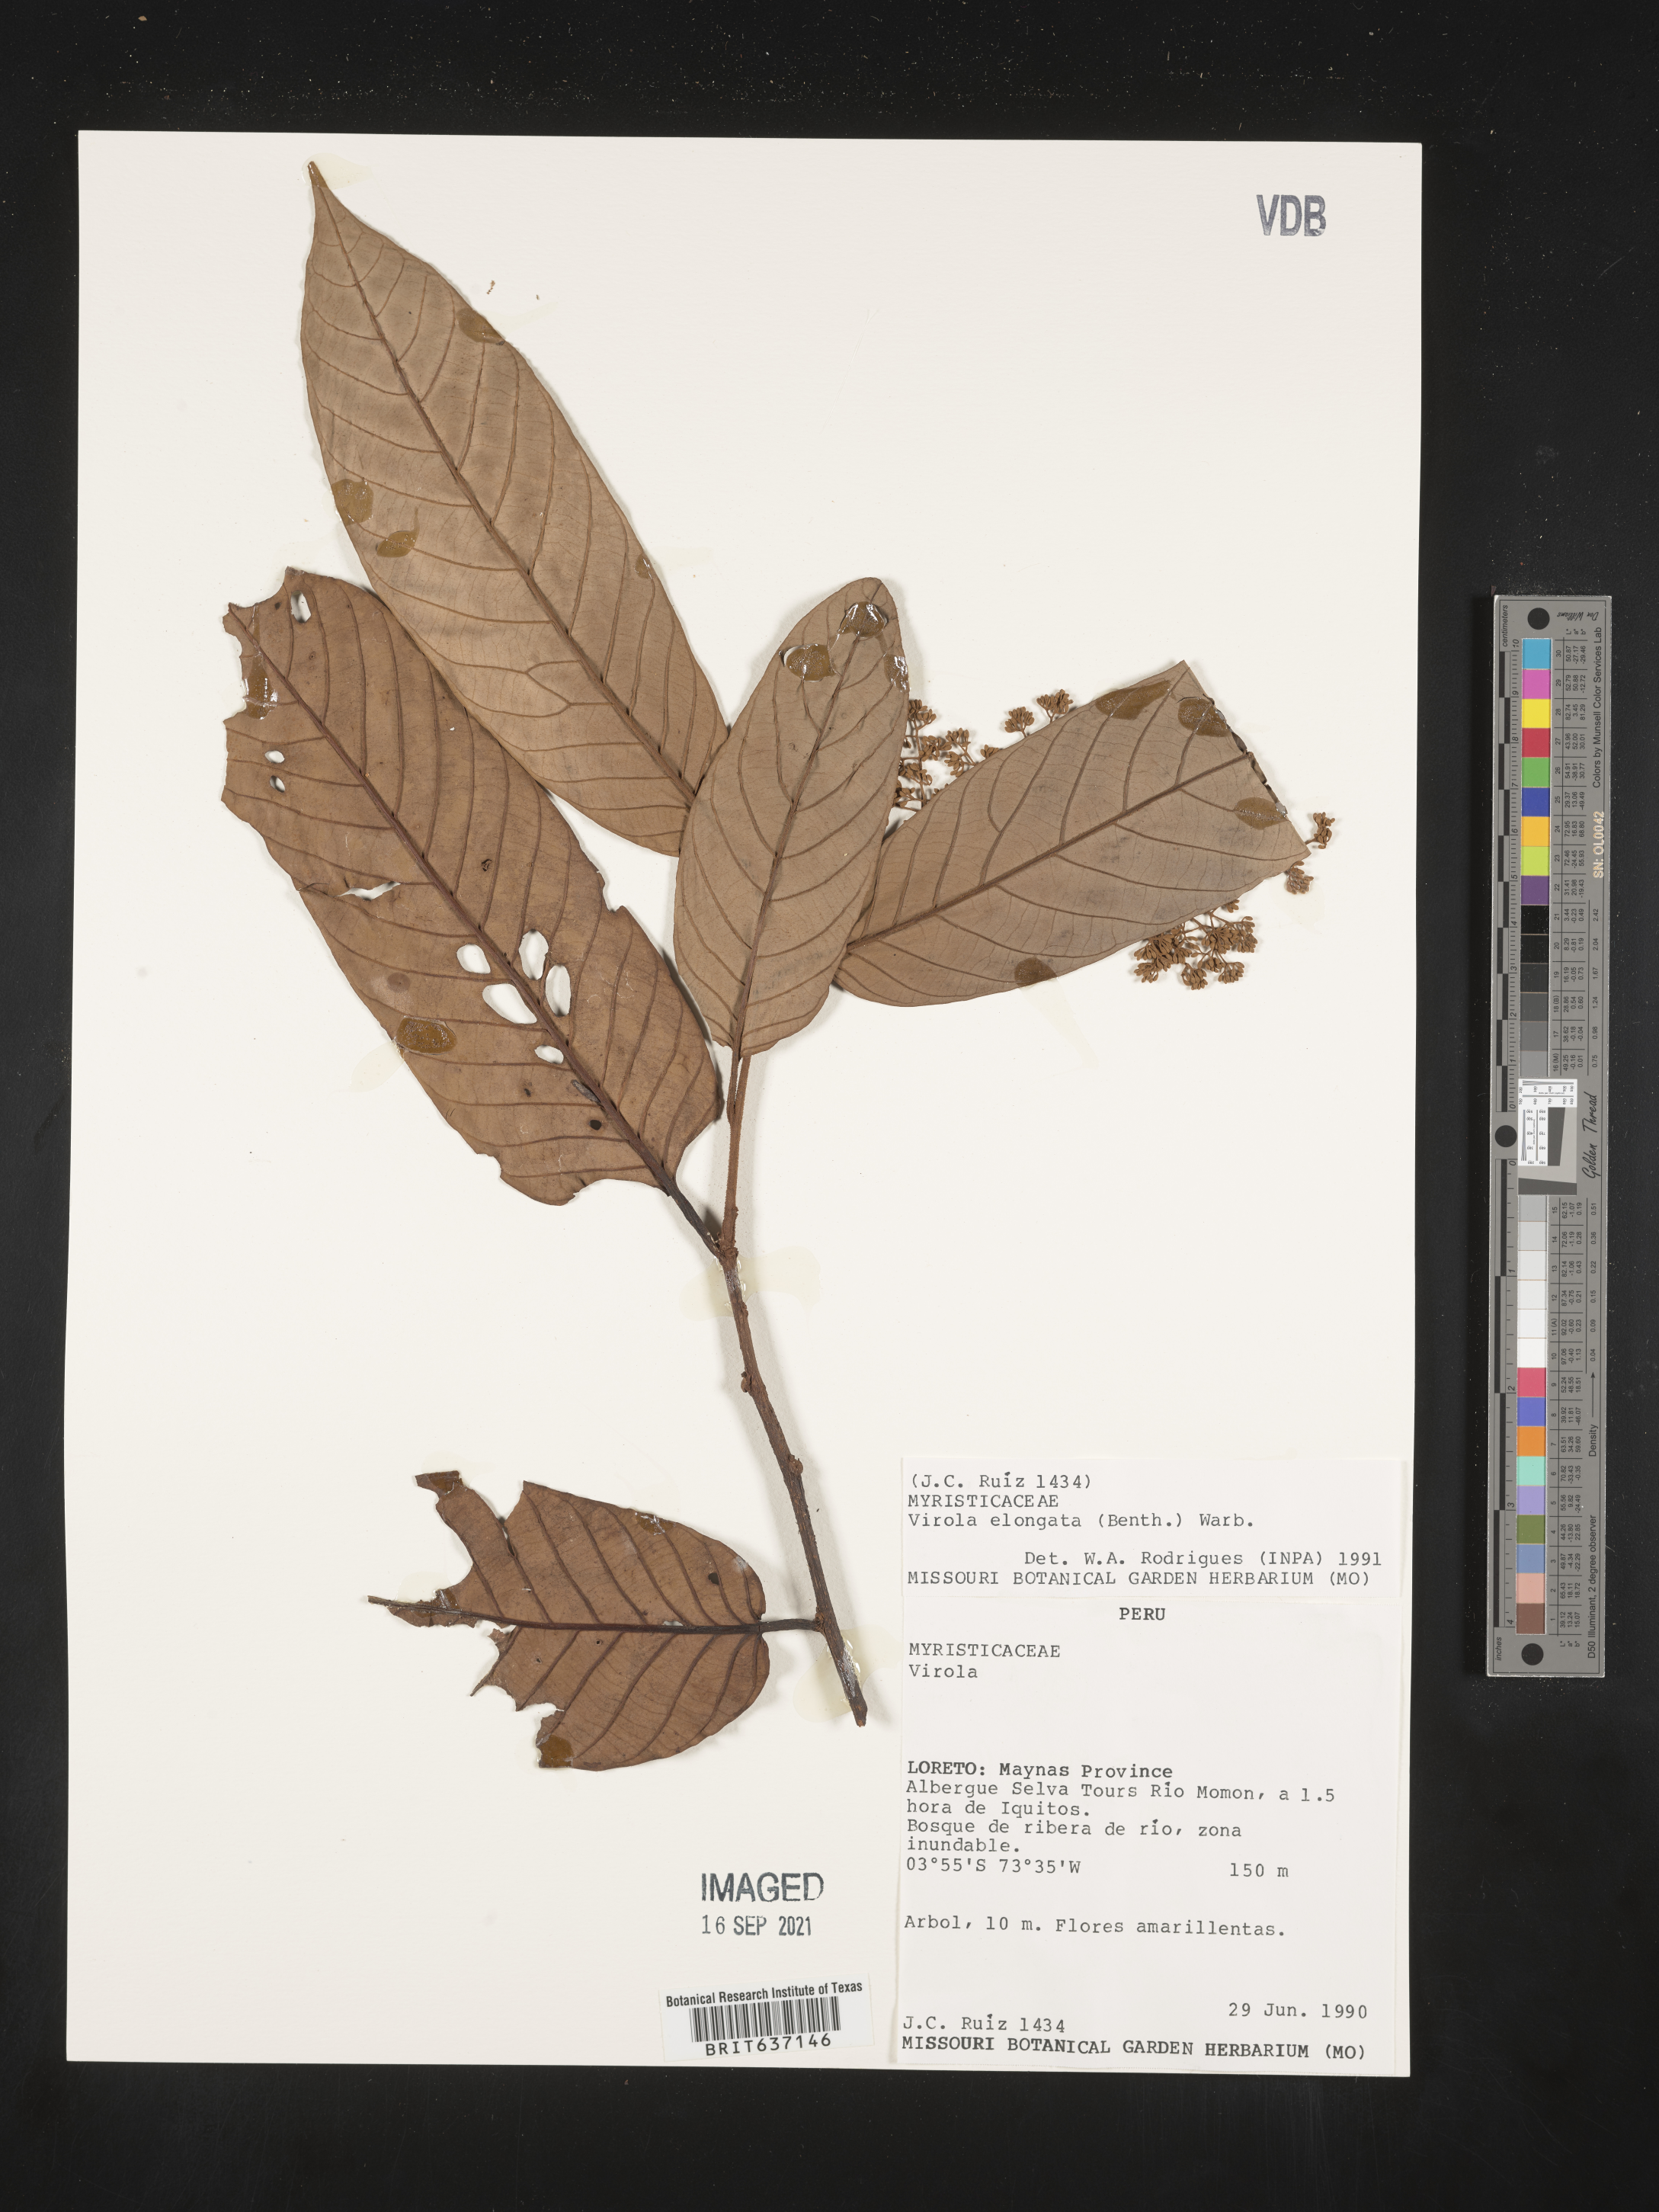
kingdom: Plantae
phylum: Tracheophyta
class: Magnoliopsida
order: Magnoliales
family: Myristicaceae
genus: Virola
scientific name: Virola
